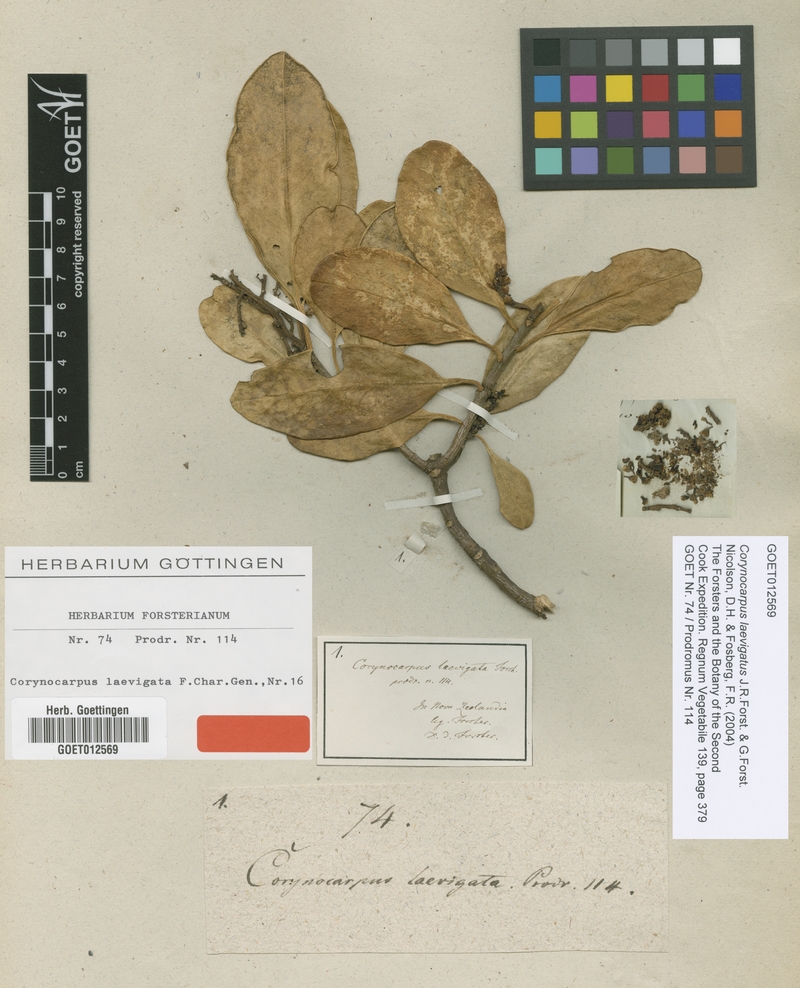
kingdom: Plantae
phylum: Tracheophyta
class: Magnoliopsida
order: Cucurbitales
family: Corynocarpaceae
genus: Corynocarpus
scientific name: Corynocarpus laevigatus
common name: New zealand laurel
